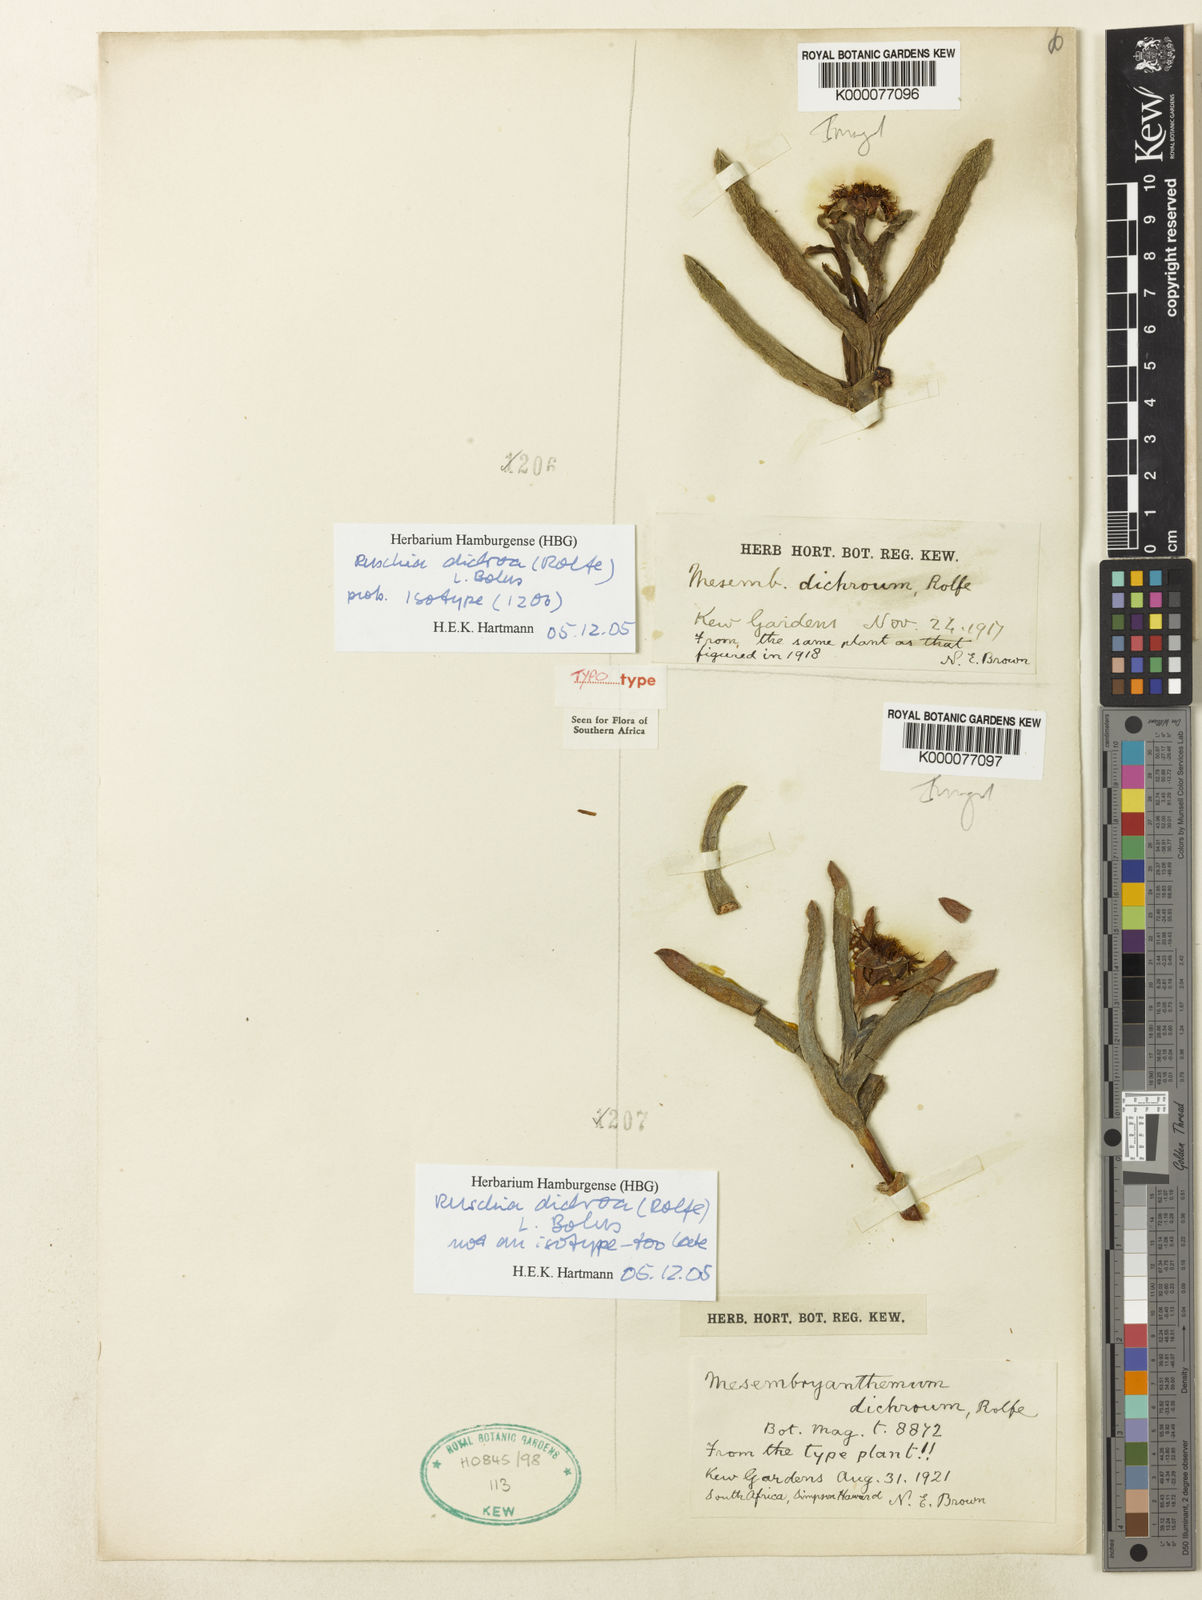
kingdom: Plantae
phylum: Tracheophyta
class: Magnoliopsida
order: Caryophyllales
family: Aizoaceae
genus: Ruschia
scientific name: Ruschia dichroa
